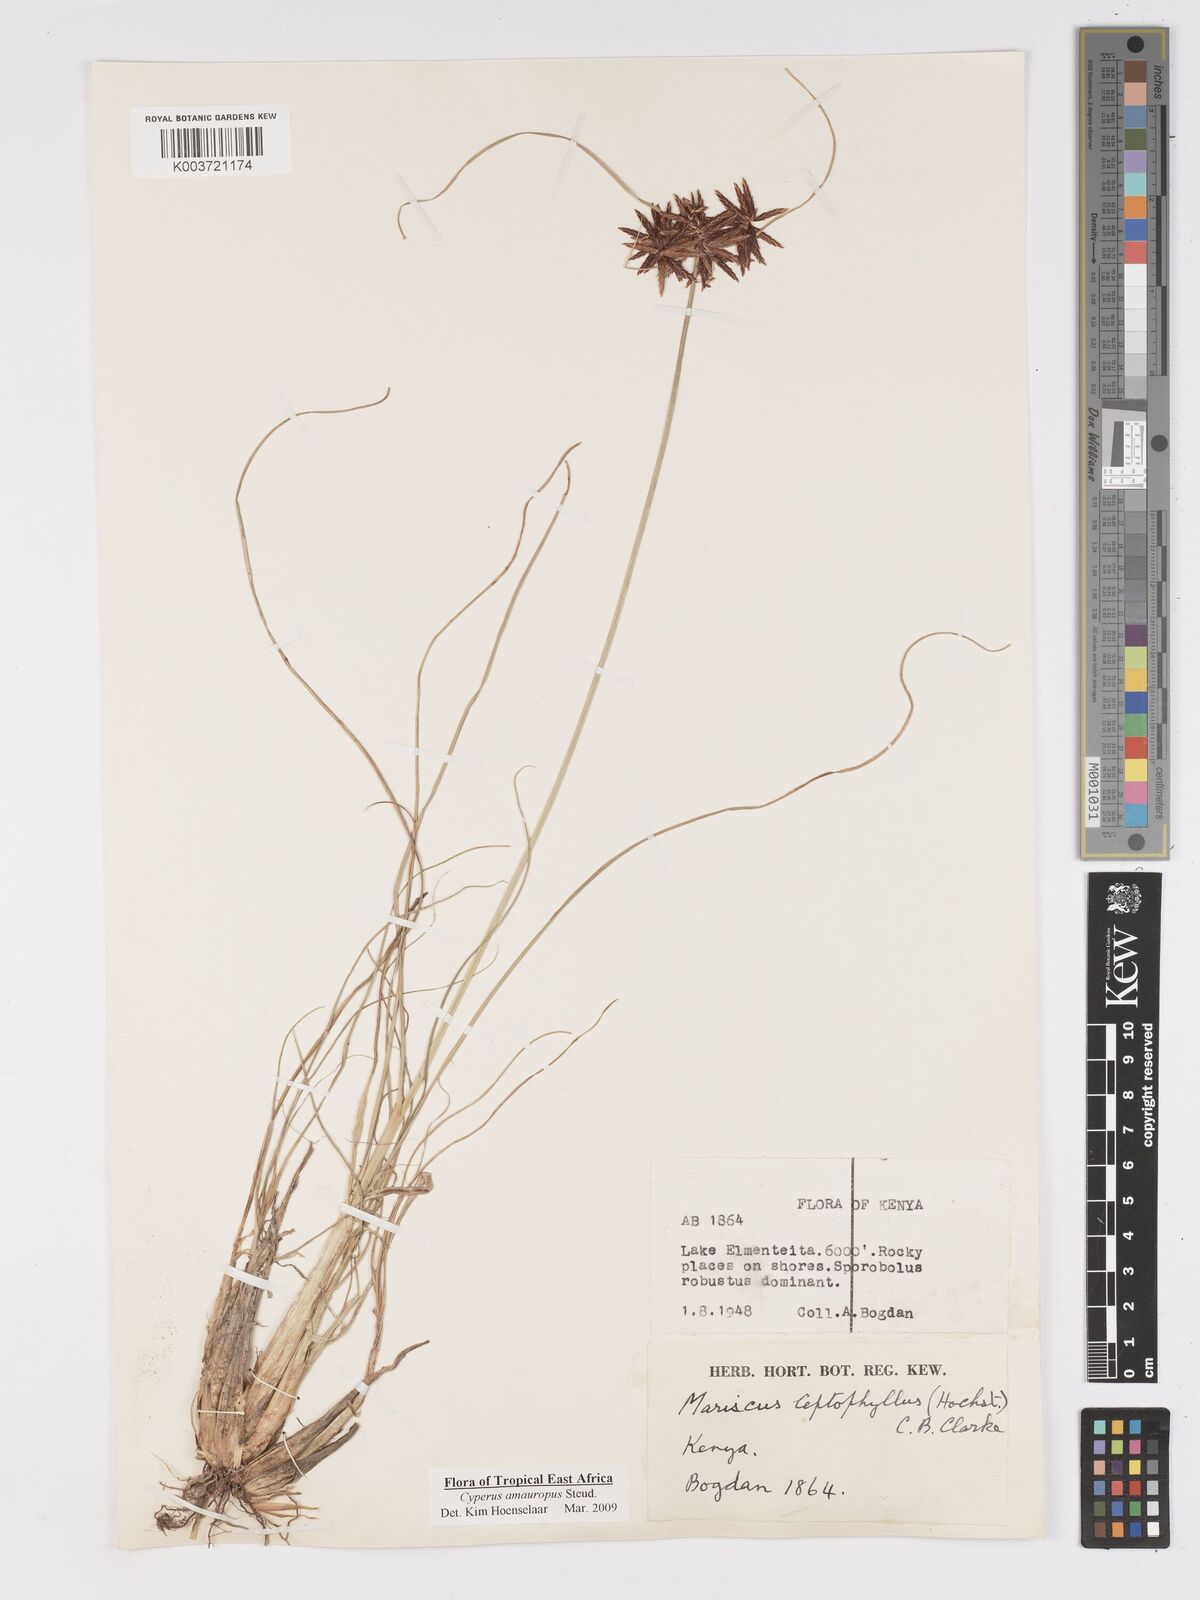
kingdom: Plantae
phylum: Tracheophyta
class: Liliopsida
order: Poales
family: Cyperaceae
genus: Cyperus
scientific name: Cyperus amauropus
